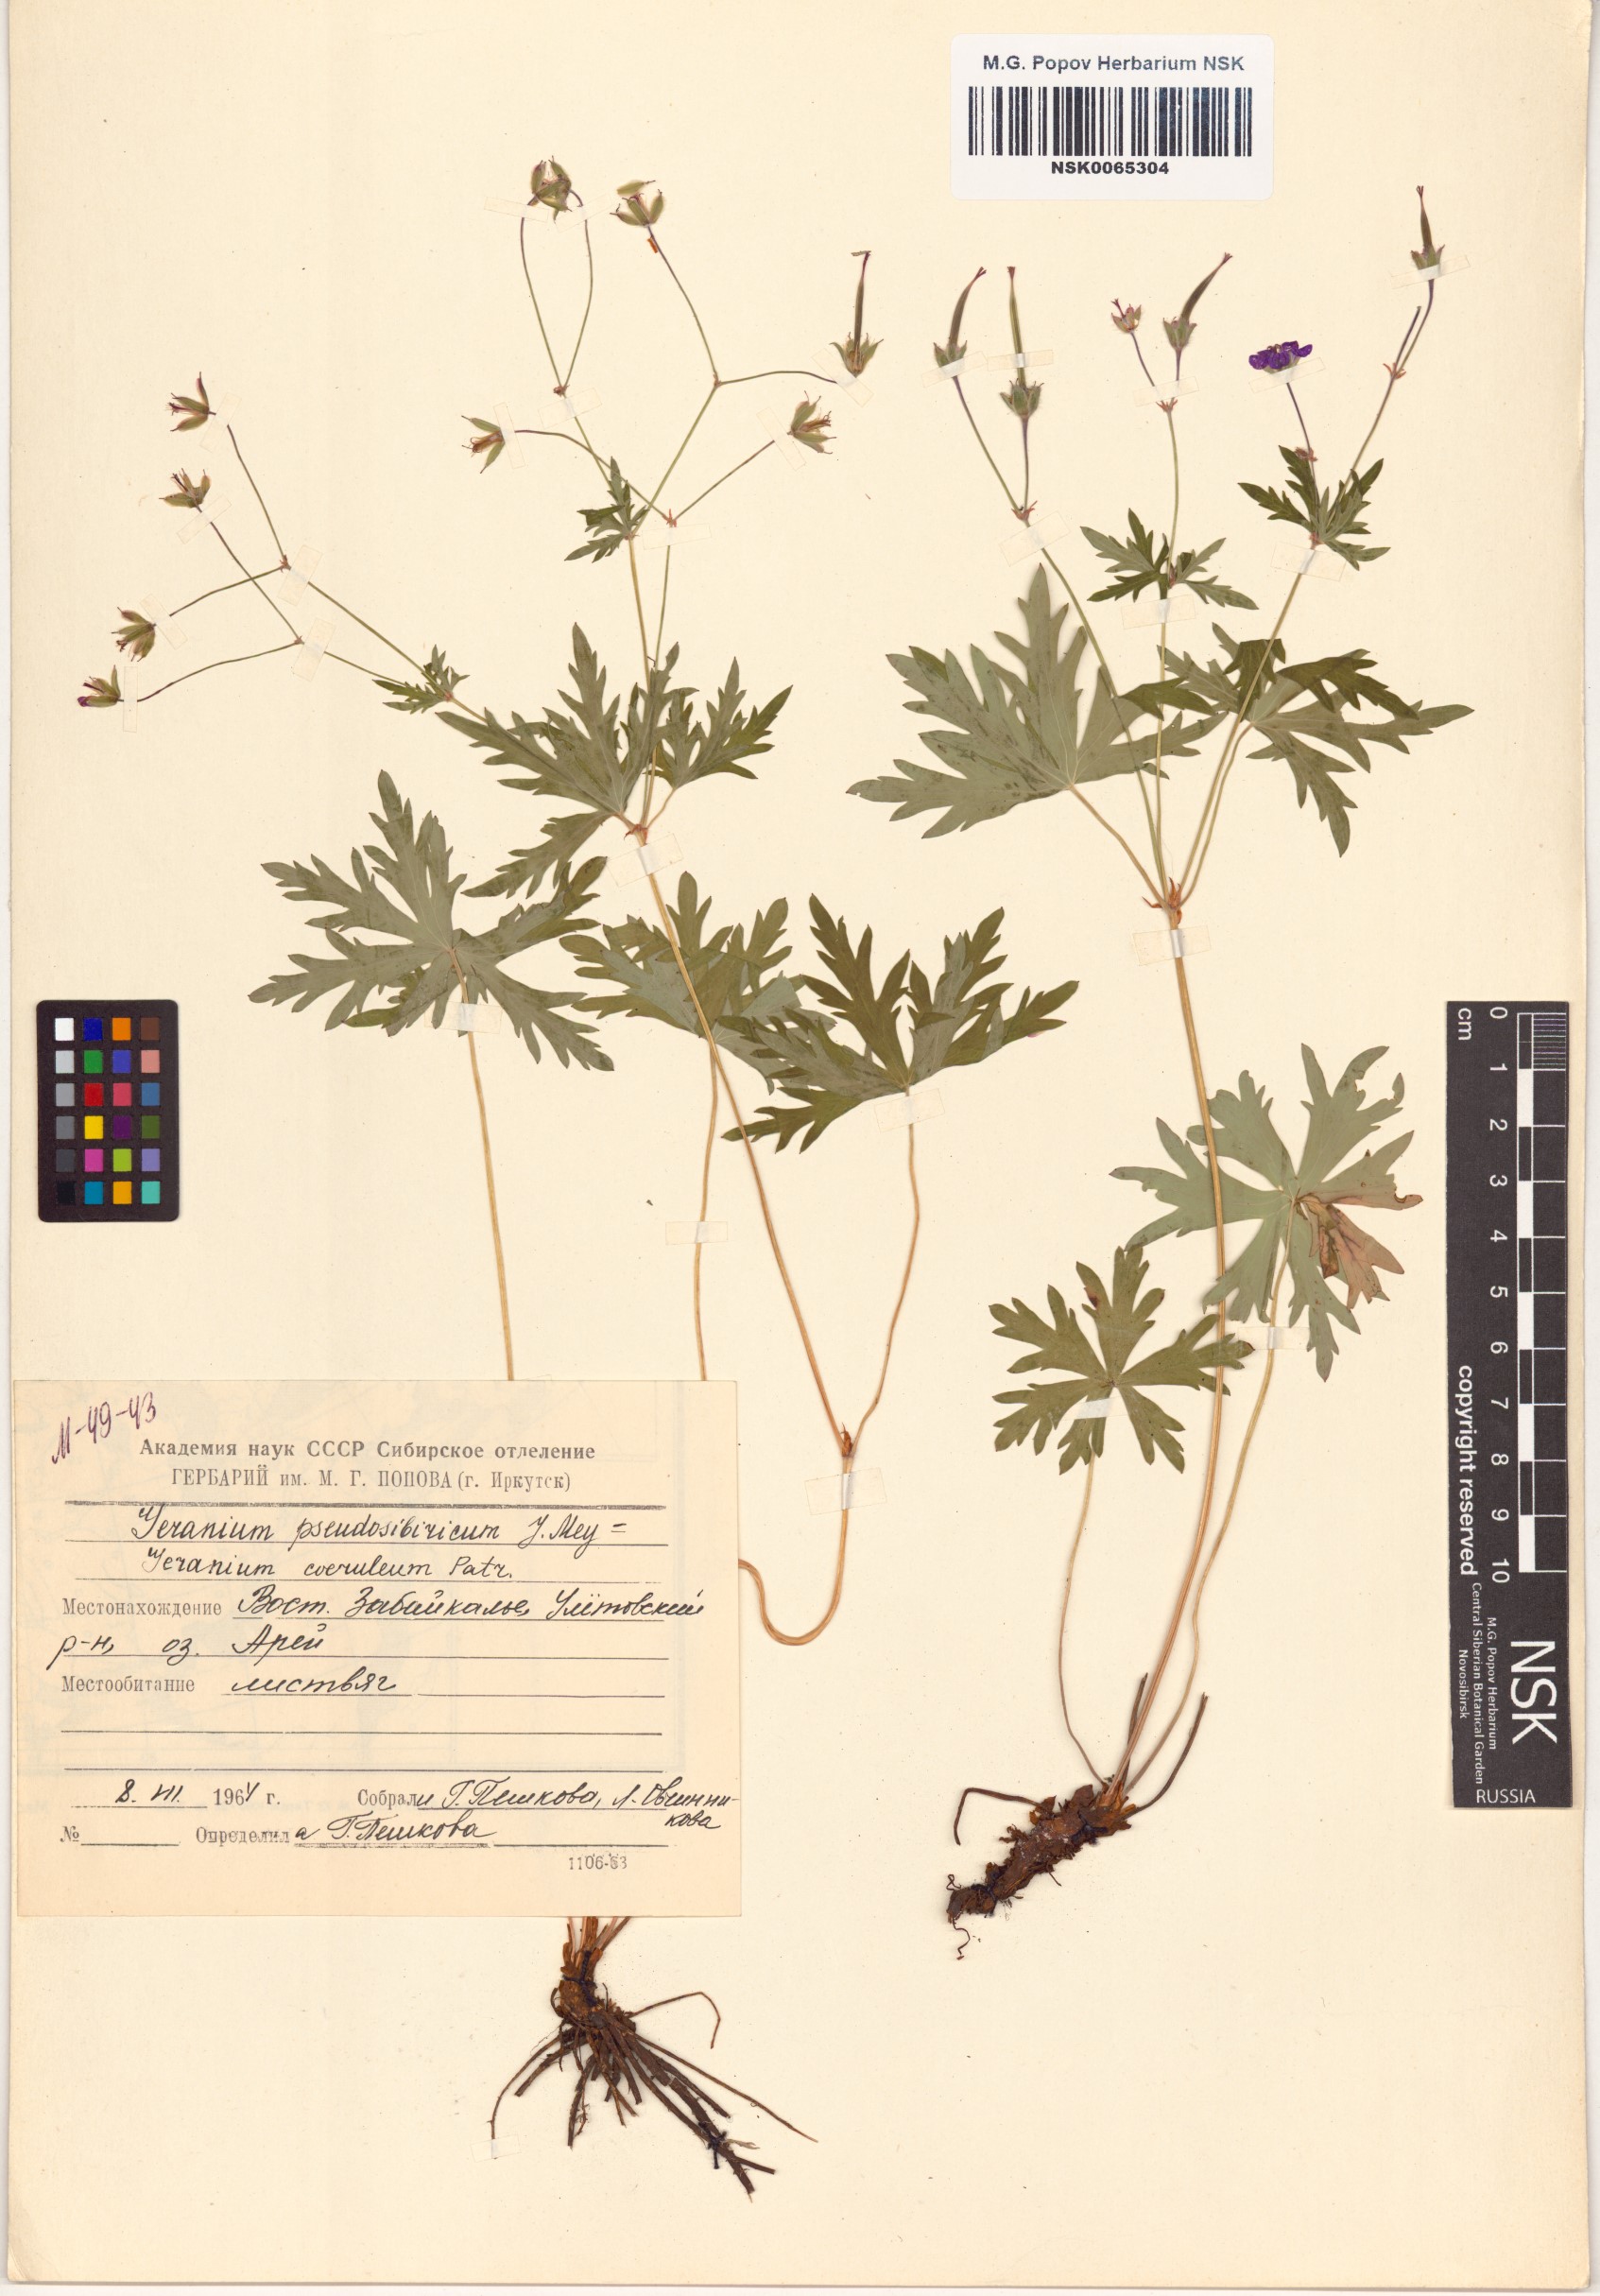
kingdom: Plantae
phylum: Tracheophyta
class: Magnoliopsida
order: Geraniales
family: Geraniaceae
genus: Geranium
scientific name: Geranium pseudosibiricum
